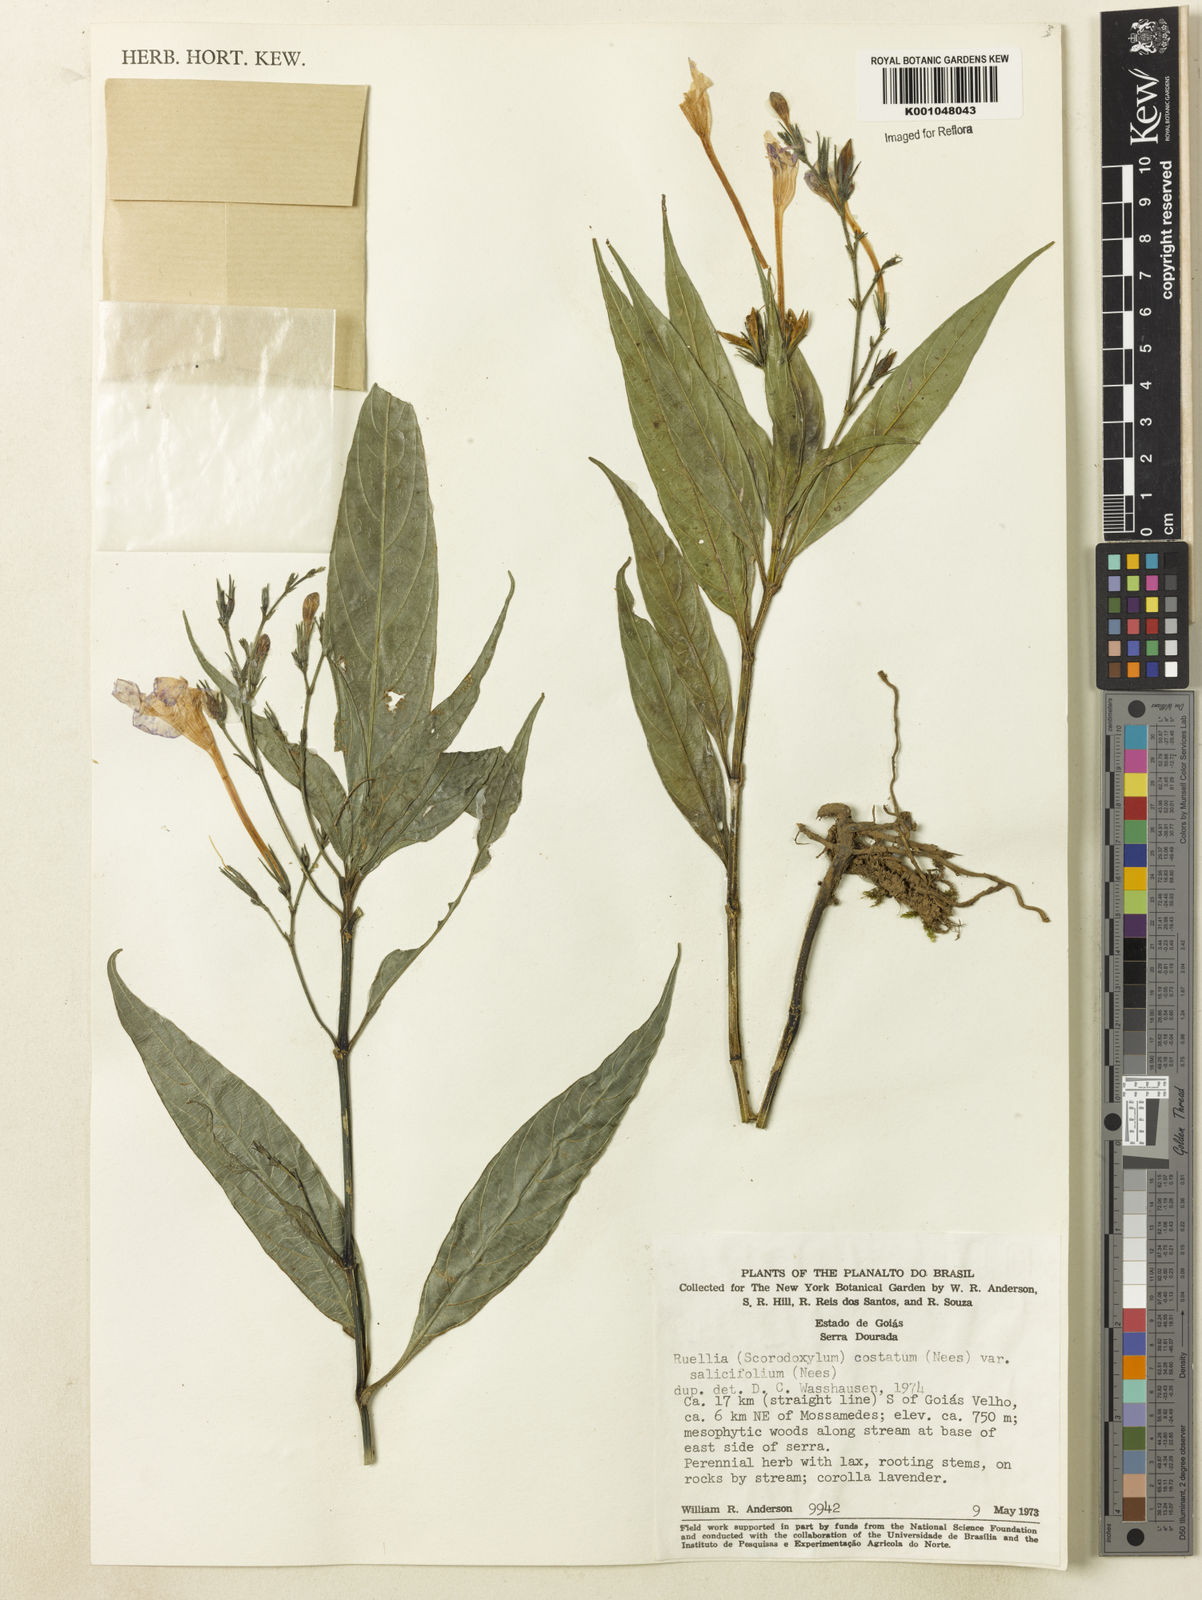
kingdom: Plantae
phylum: Tracheophyta
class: Magnoliopsida
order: Lamiales
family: Acanthaceae
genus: Ruellia
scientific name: Ruellia costata
